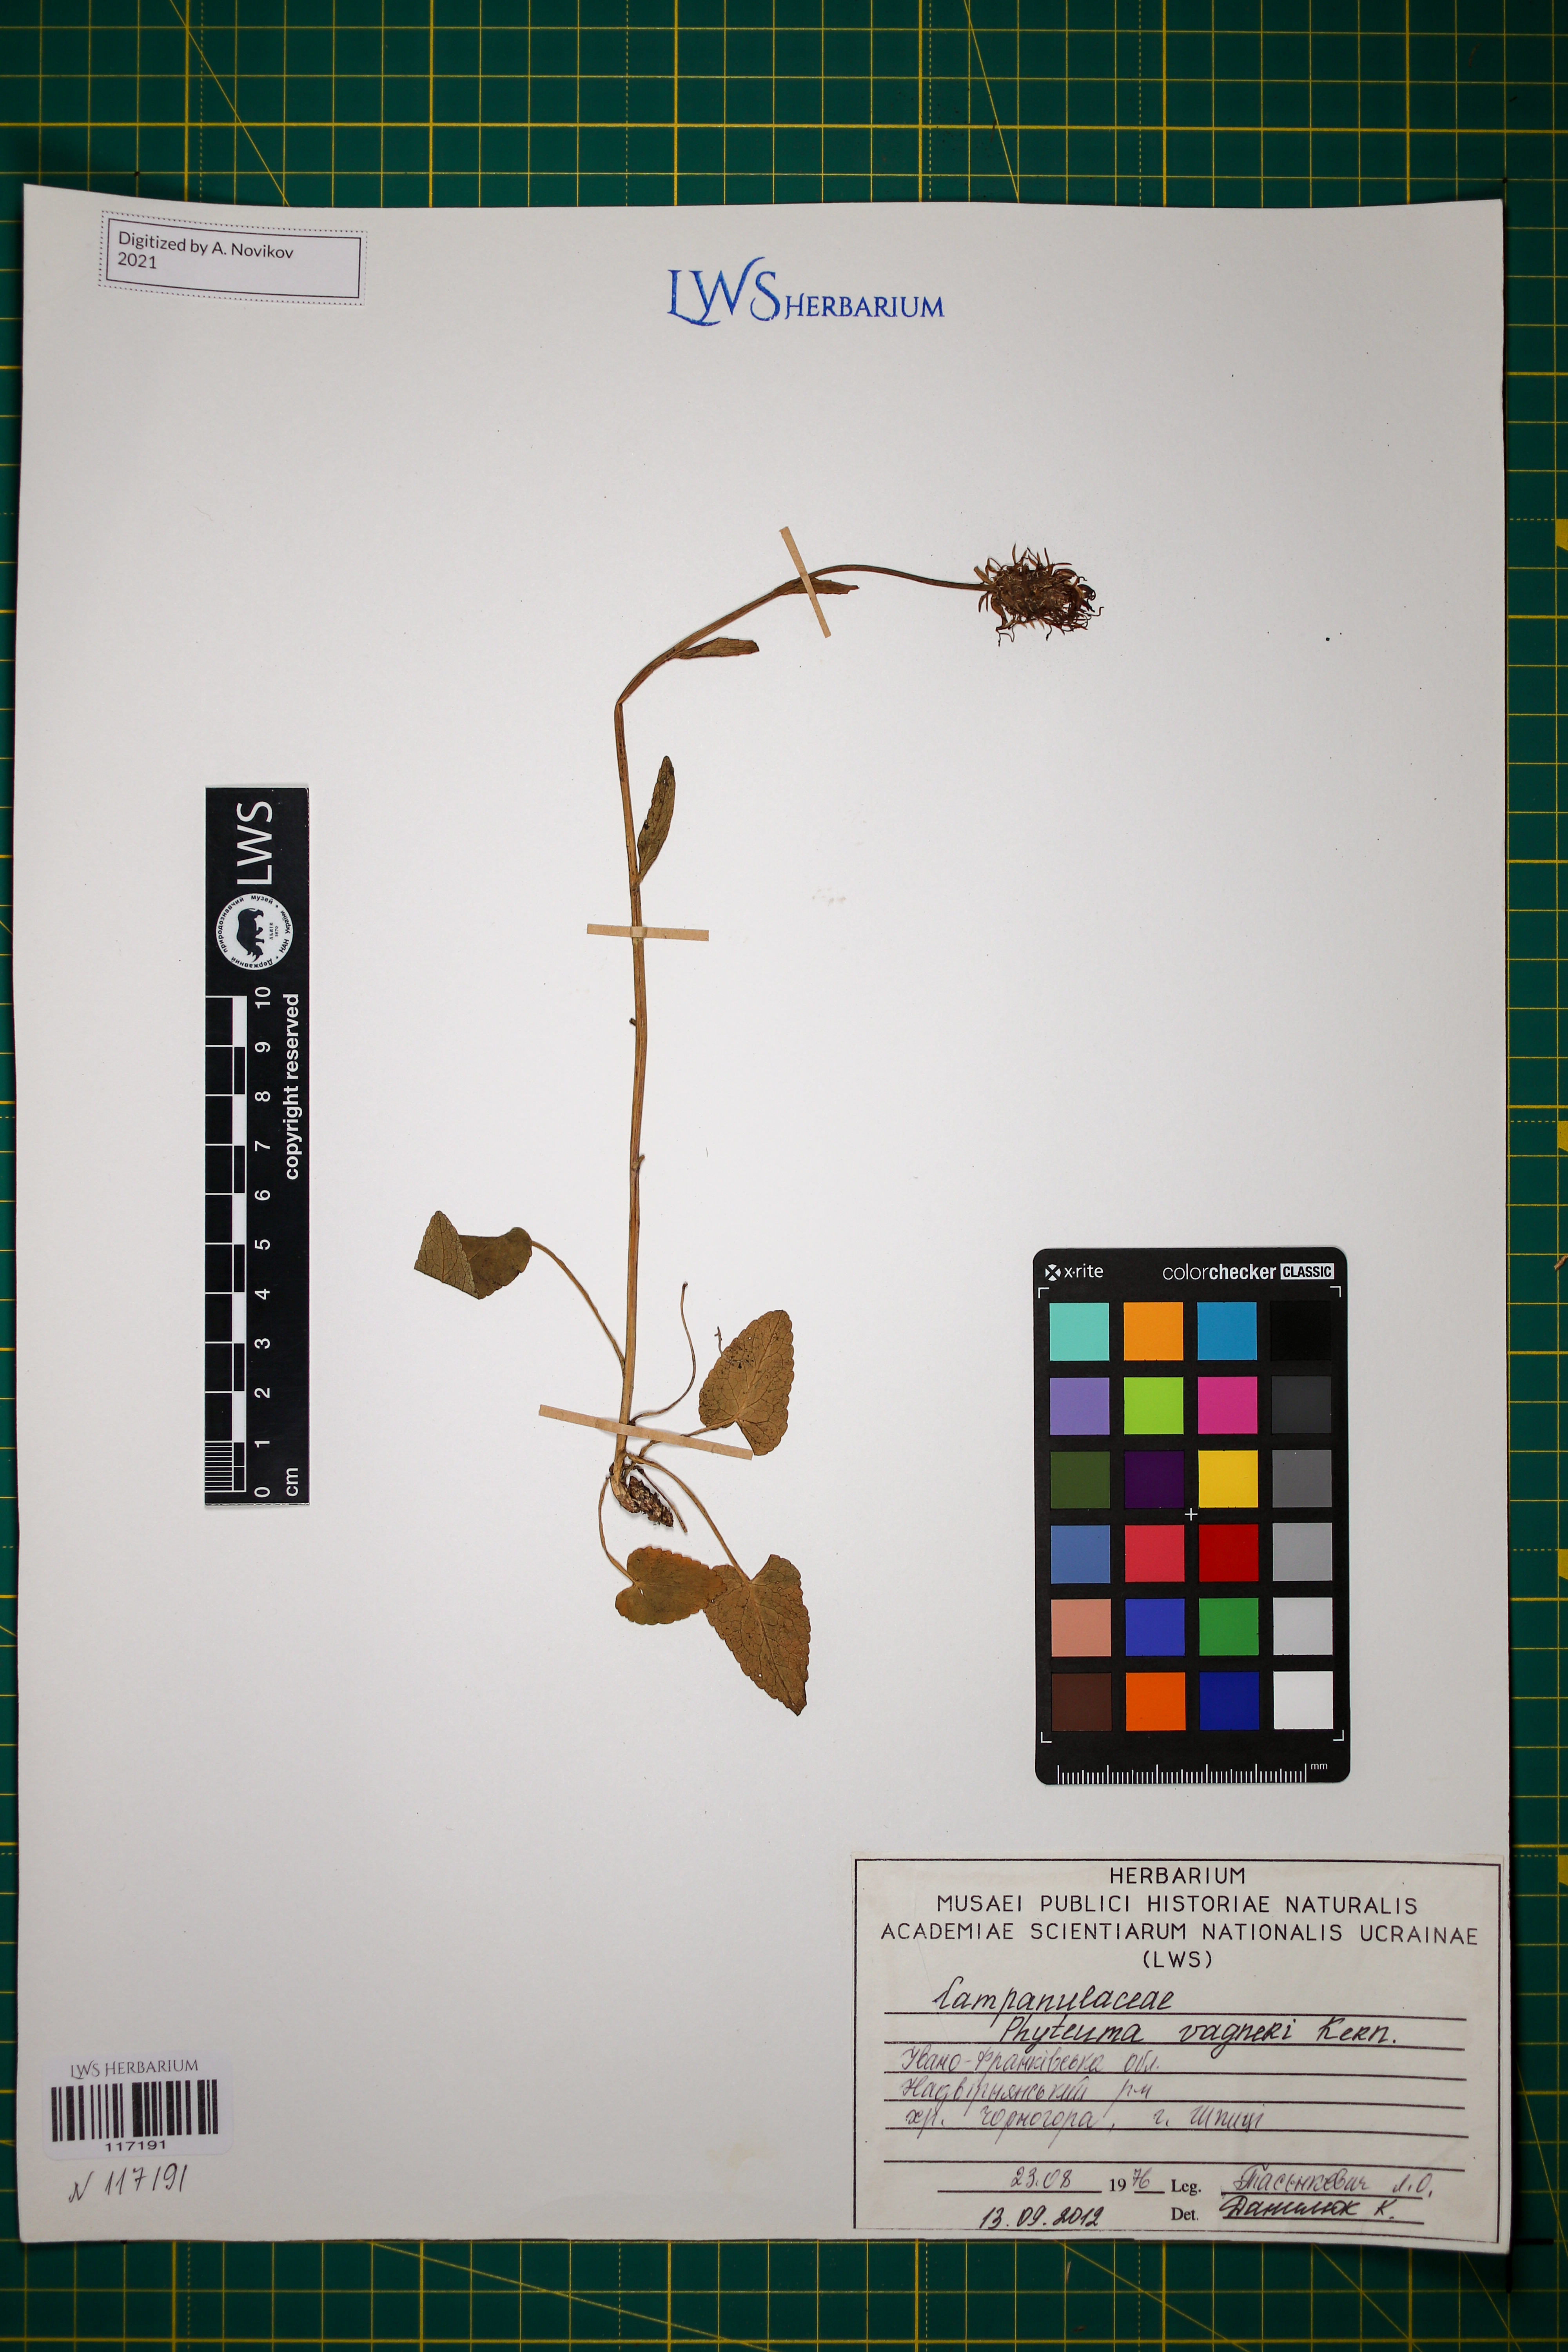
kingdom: Plantae
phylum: Tracheophyta
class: Magnoliopsida
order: Asterales
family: Campanulaceae
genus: Phyteuma
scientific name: Phyteuma vagneri
